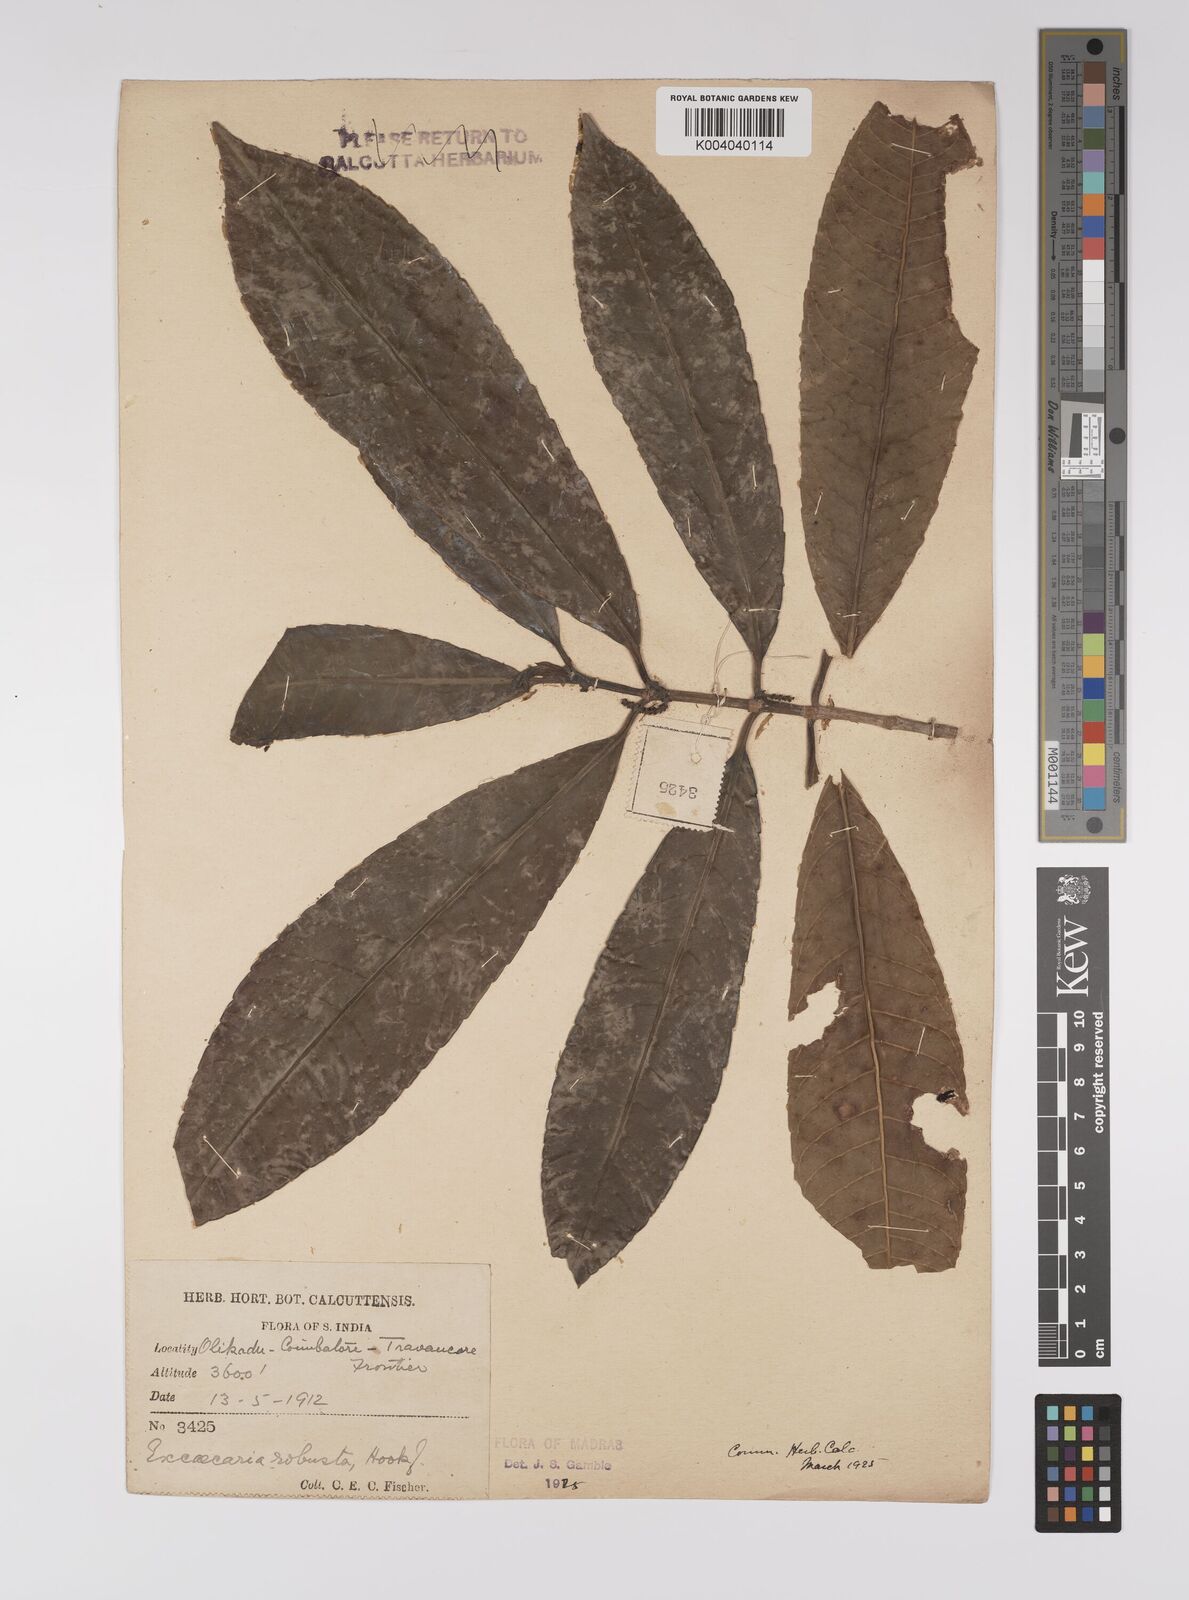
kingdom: Plantae
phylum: Tracheophyta
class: Magnoliopsida
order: Malpighiales
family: Euphorbiaceae
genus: Excoecaria
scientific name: Excoecaria oppositifolia
